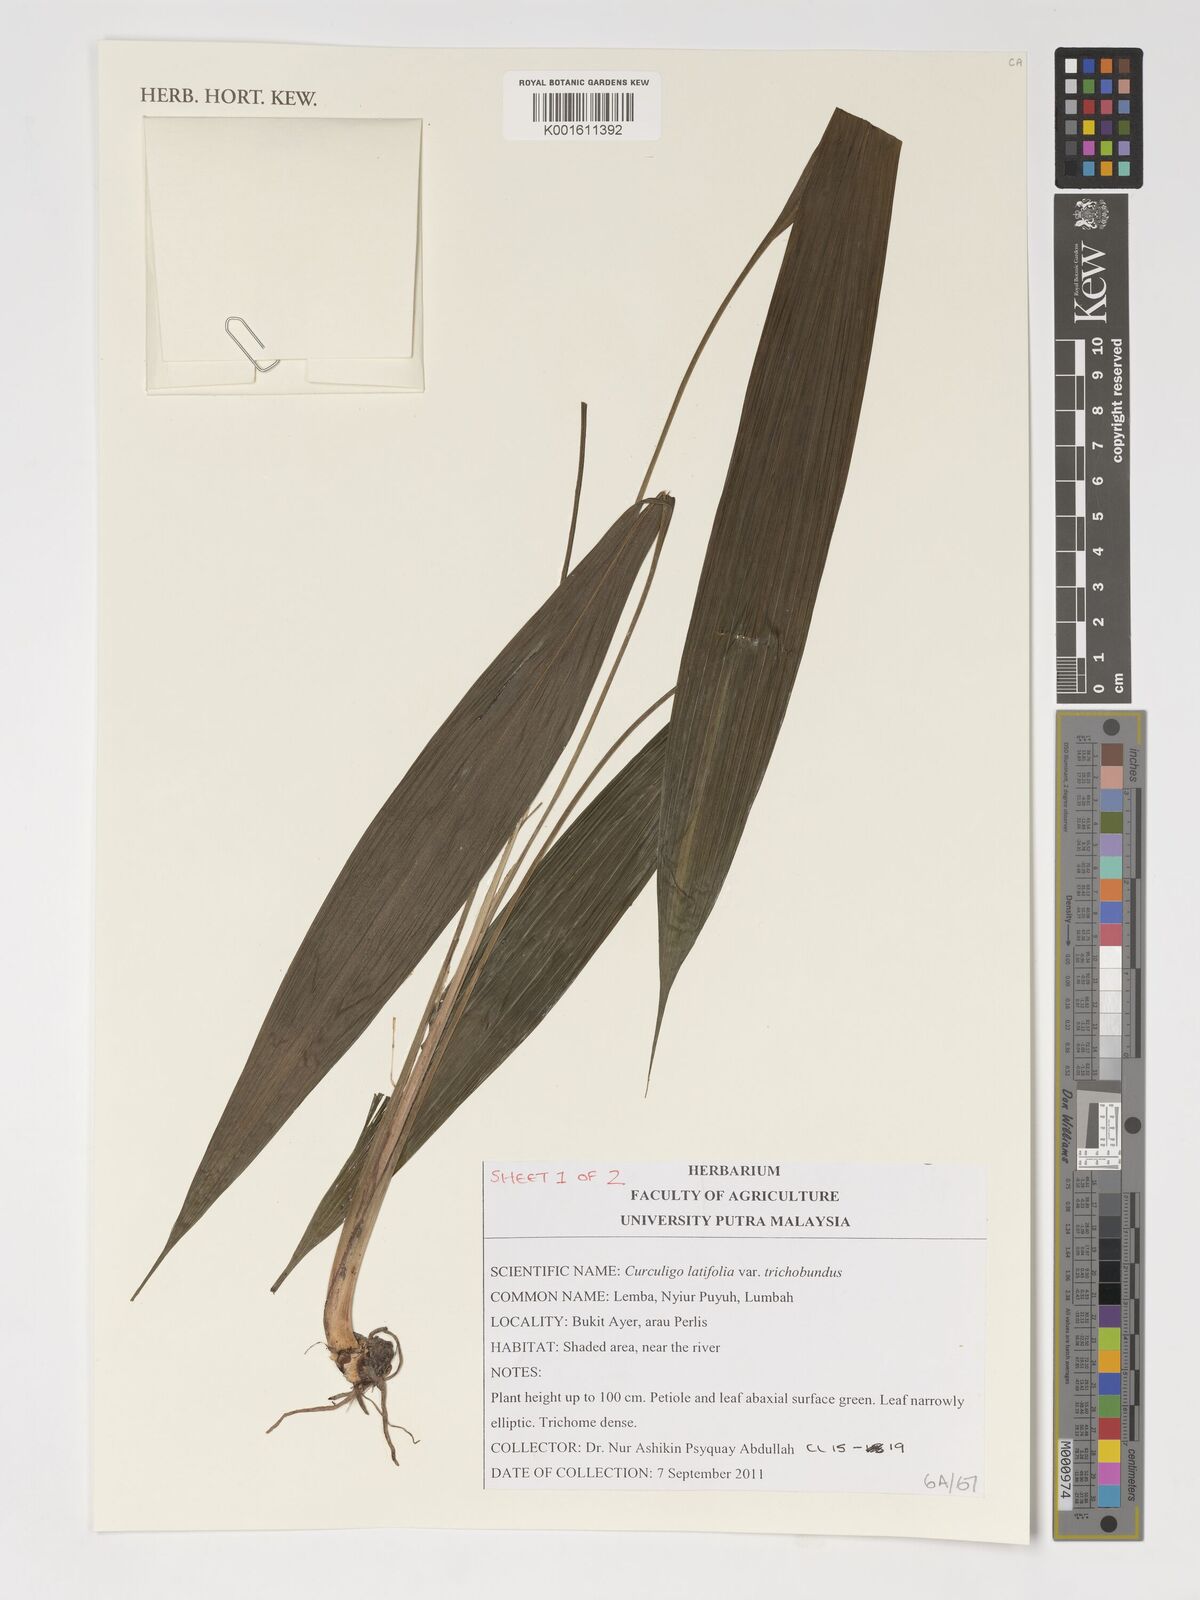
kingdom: Plantae
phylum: Tracheophyta
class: Liliopsida
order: Asparagales
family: Hypoxidaceae
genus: Curculigo
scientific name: Curculigo latifolia
